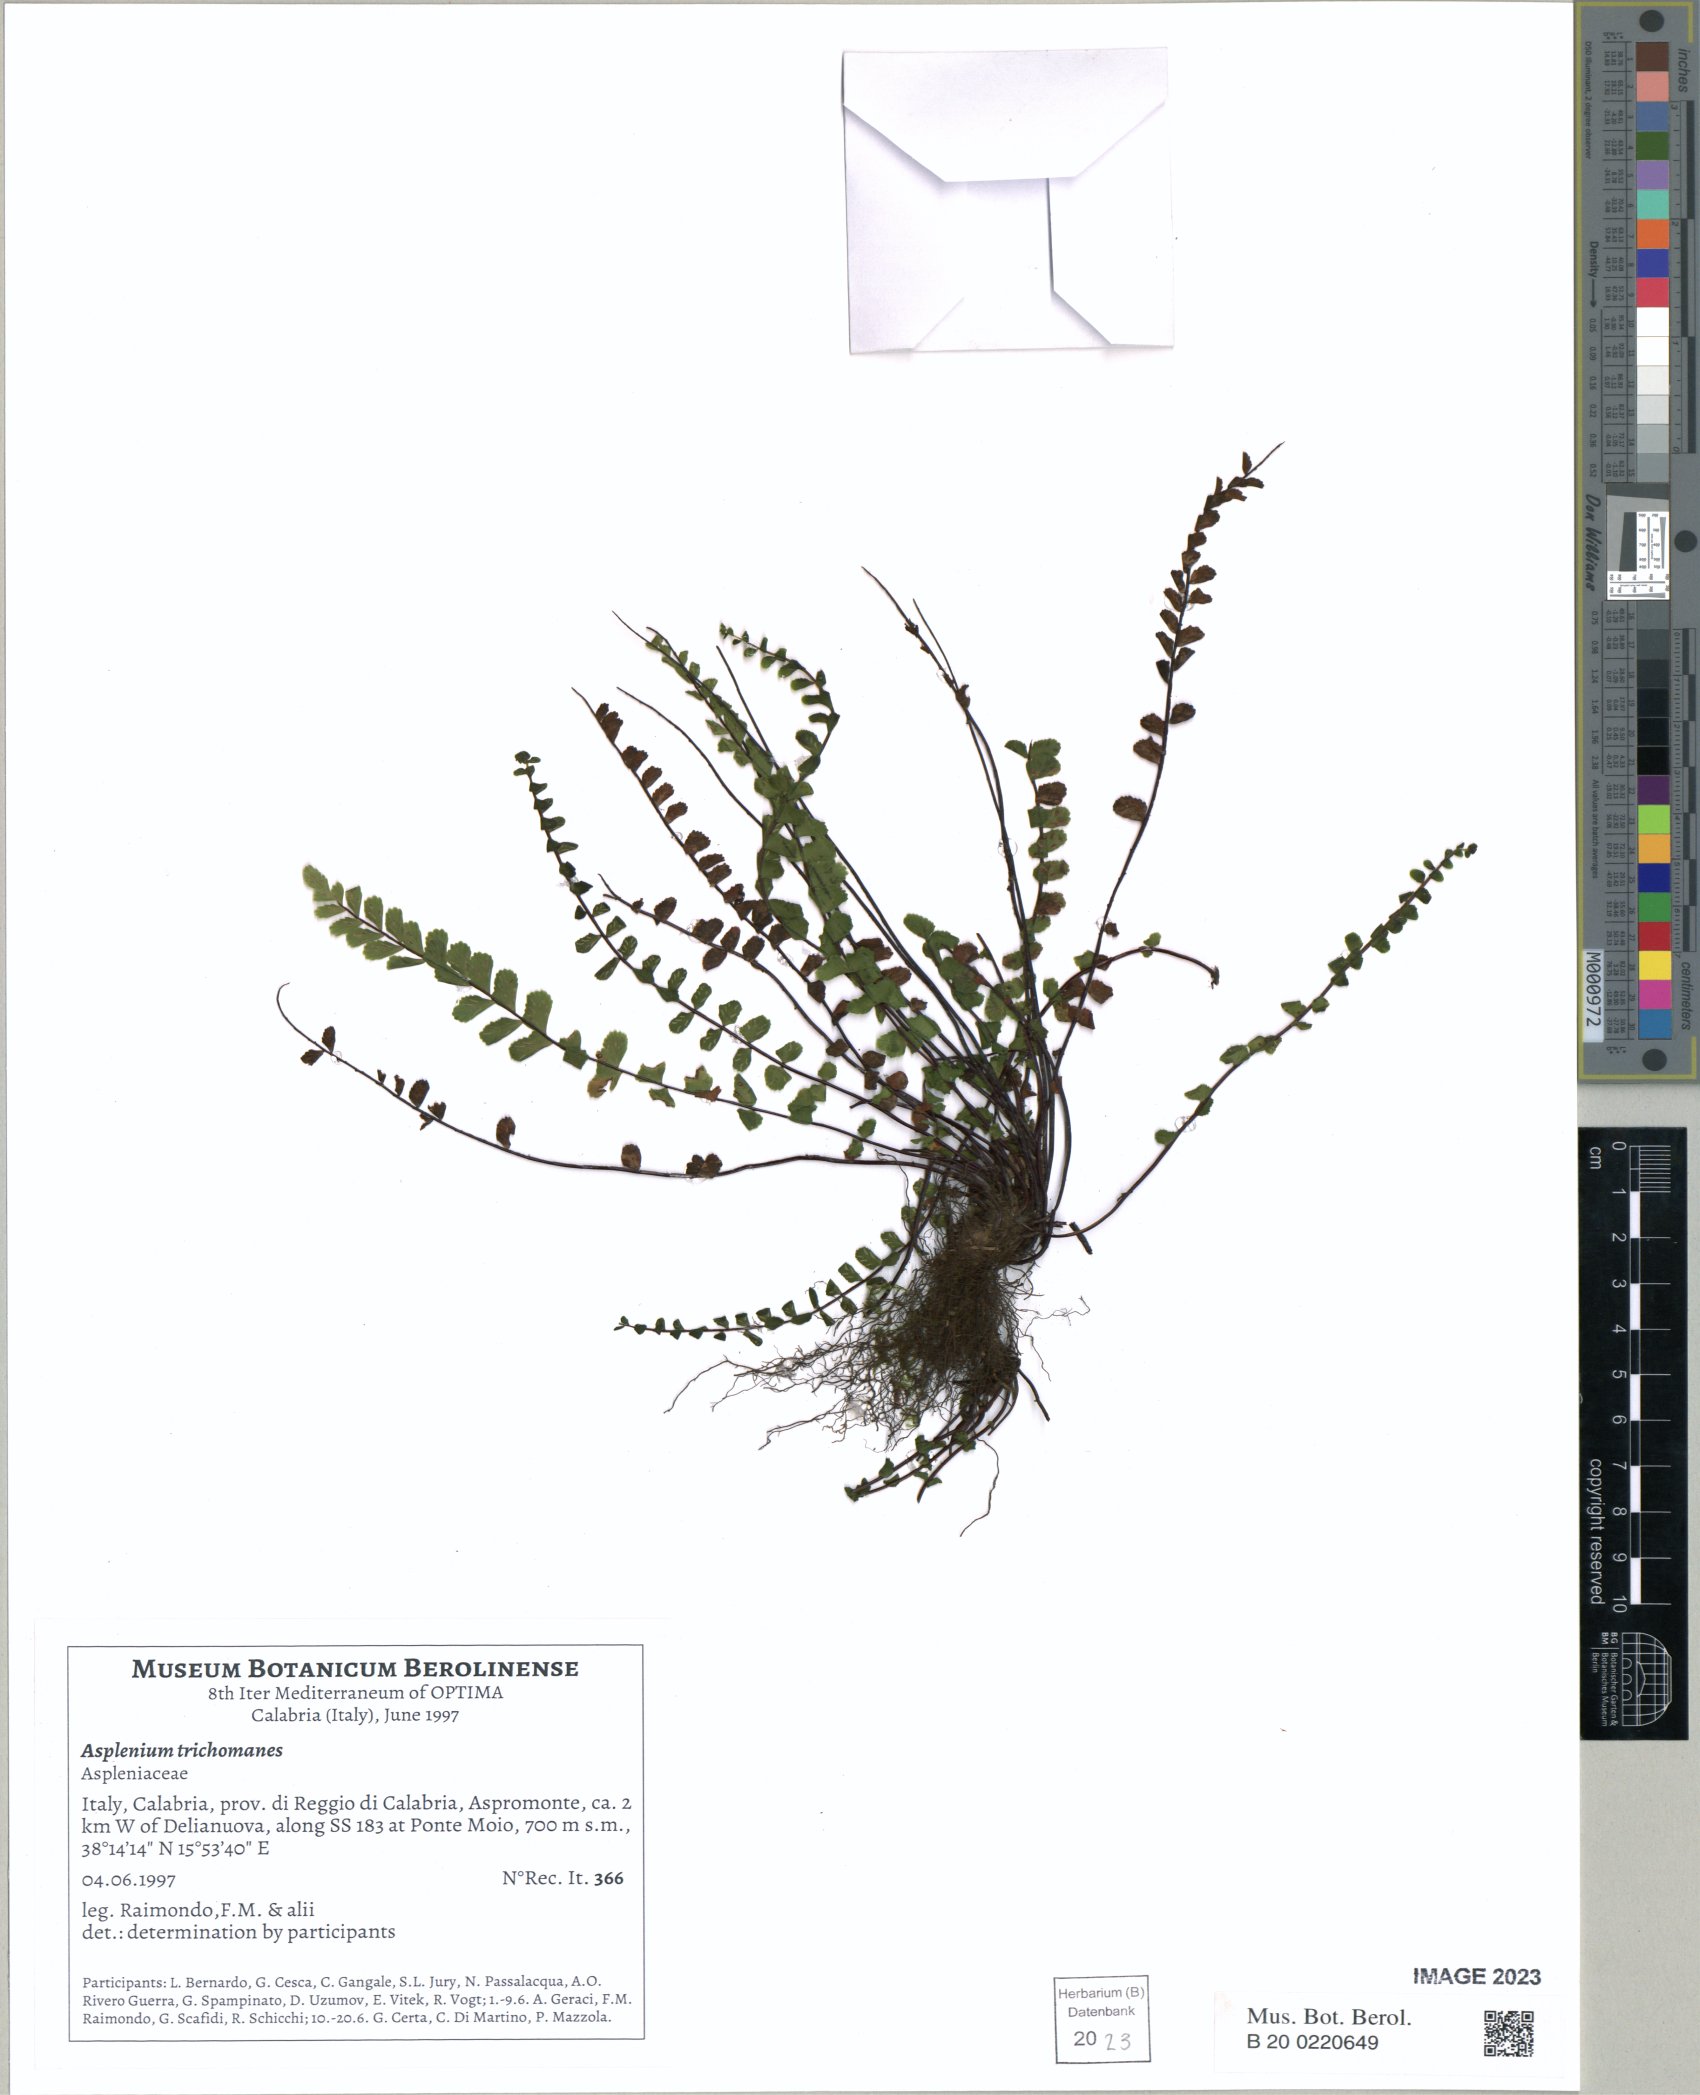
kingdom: Plantae
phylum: Tracheophyta
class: Polypodiopsida
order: Polypodiales
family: Aspleniaceae
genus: Asplenium
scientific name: Asplenium trichomanes
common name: Maidenhair spleenwort
